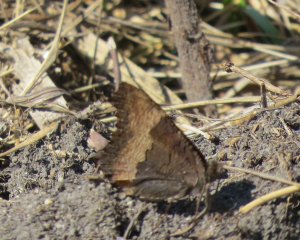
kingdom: Animalia
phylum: Arthropoda
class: Insecta
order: Lepidoptera
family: Nymphalidae
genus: Aglais
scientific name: Aglais milberti
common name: Milbert's Tortoiseshell
